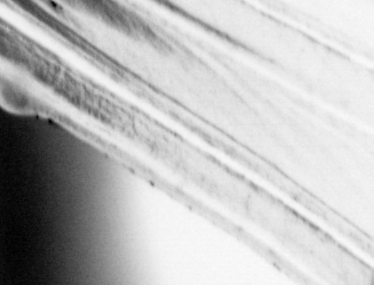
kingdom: Animalia
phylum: Chordata
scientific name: Chordata
